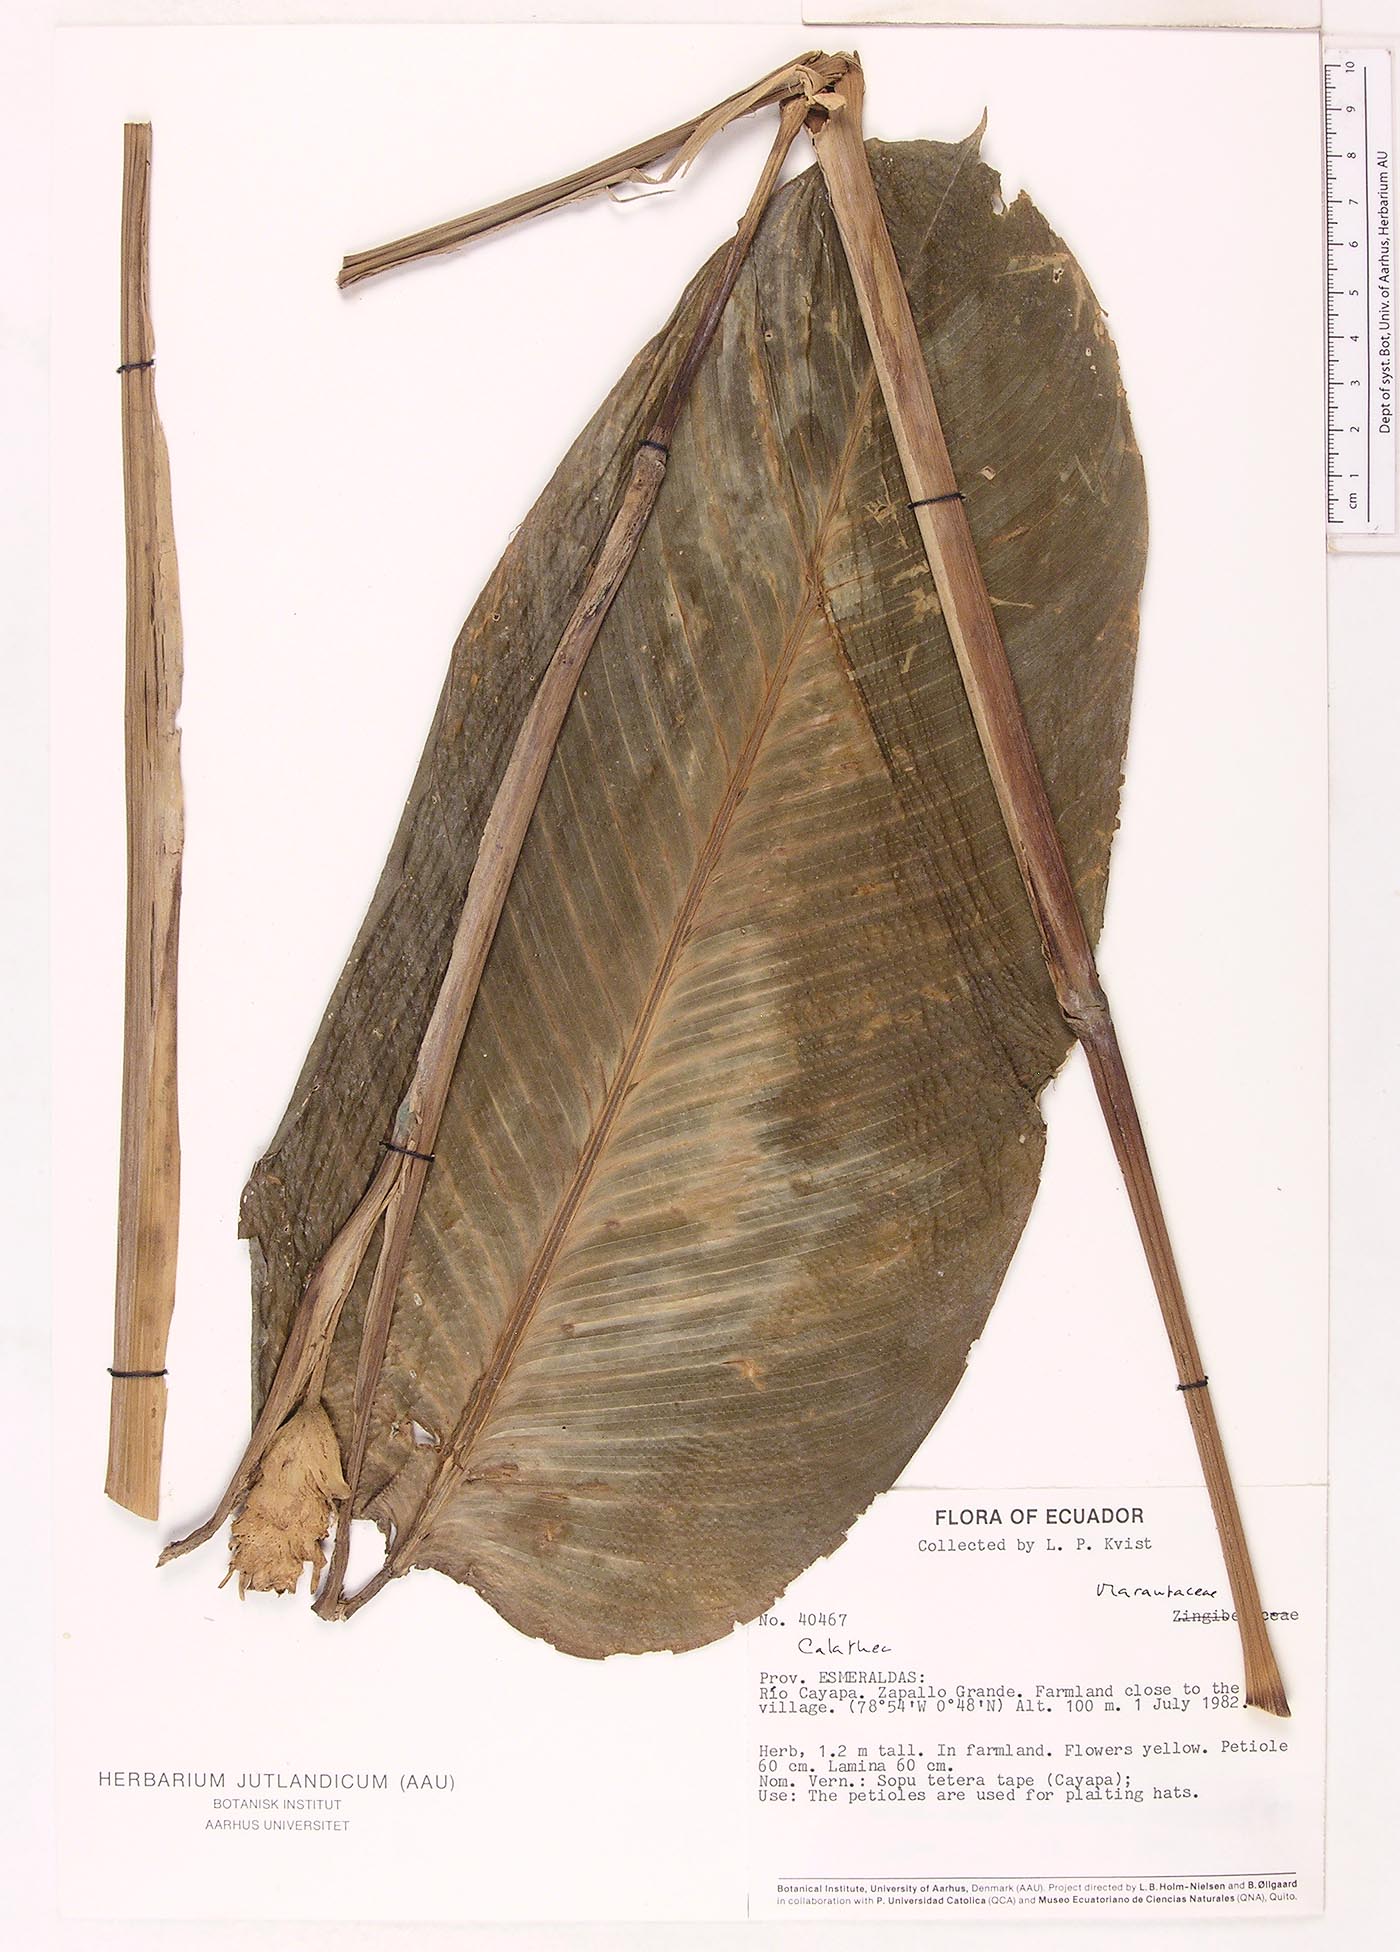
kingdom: Plantae
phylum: Tracheophyta
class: Magnoliopsida
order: Laurales
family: Lauraceae
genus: Goeppertia
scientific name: Goeppertia
